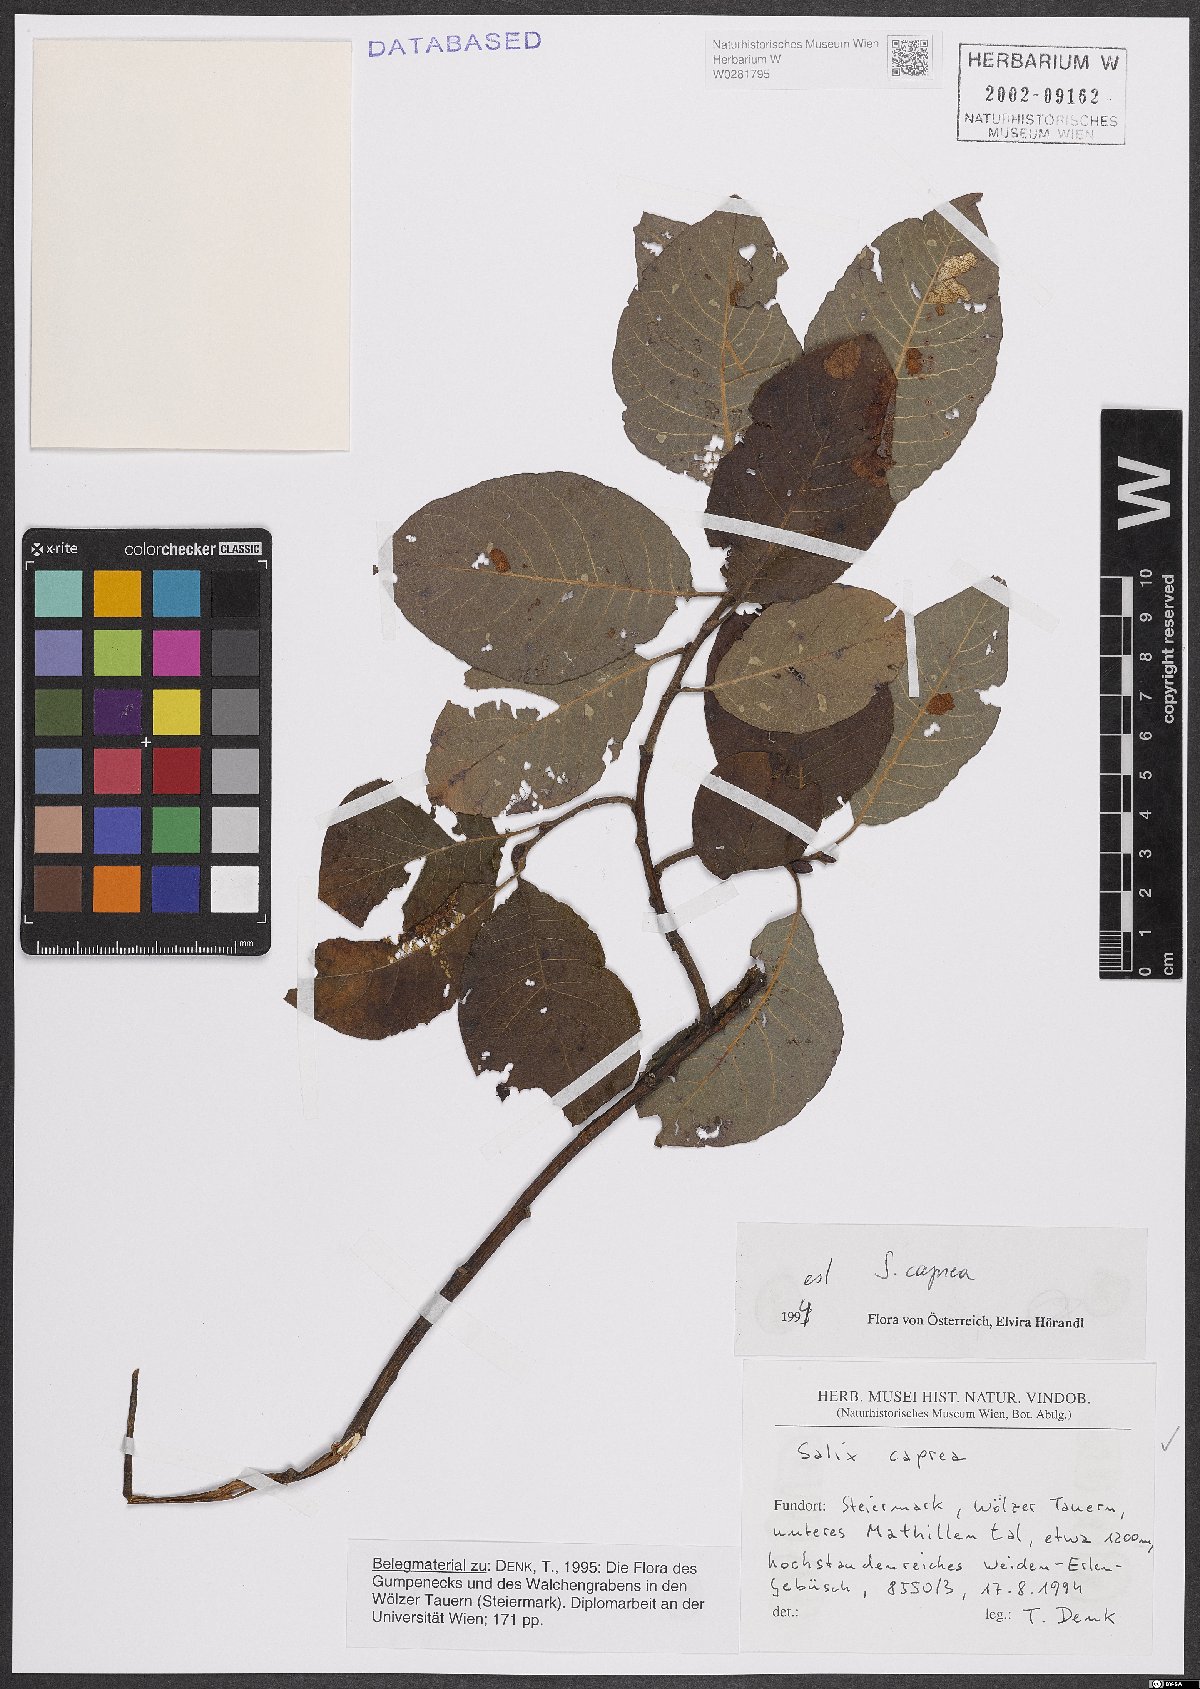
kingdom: Plantae
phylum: Tracheophyta
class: Magnoliopsida
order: Malpighiales
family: Salicaceae
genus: Salix
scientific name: Salix caprea
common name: Goat willow
